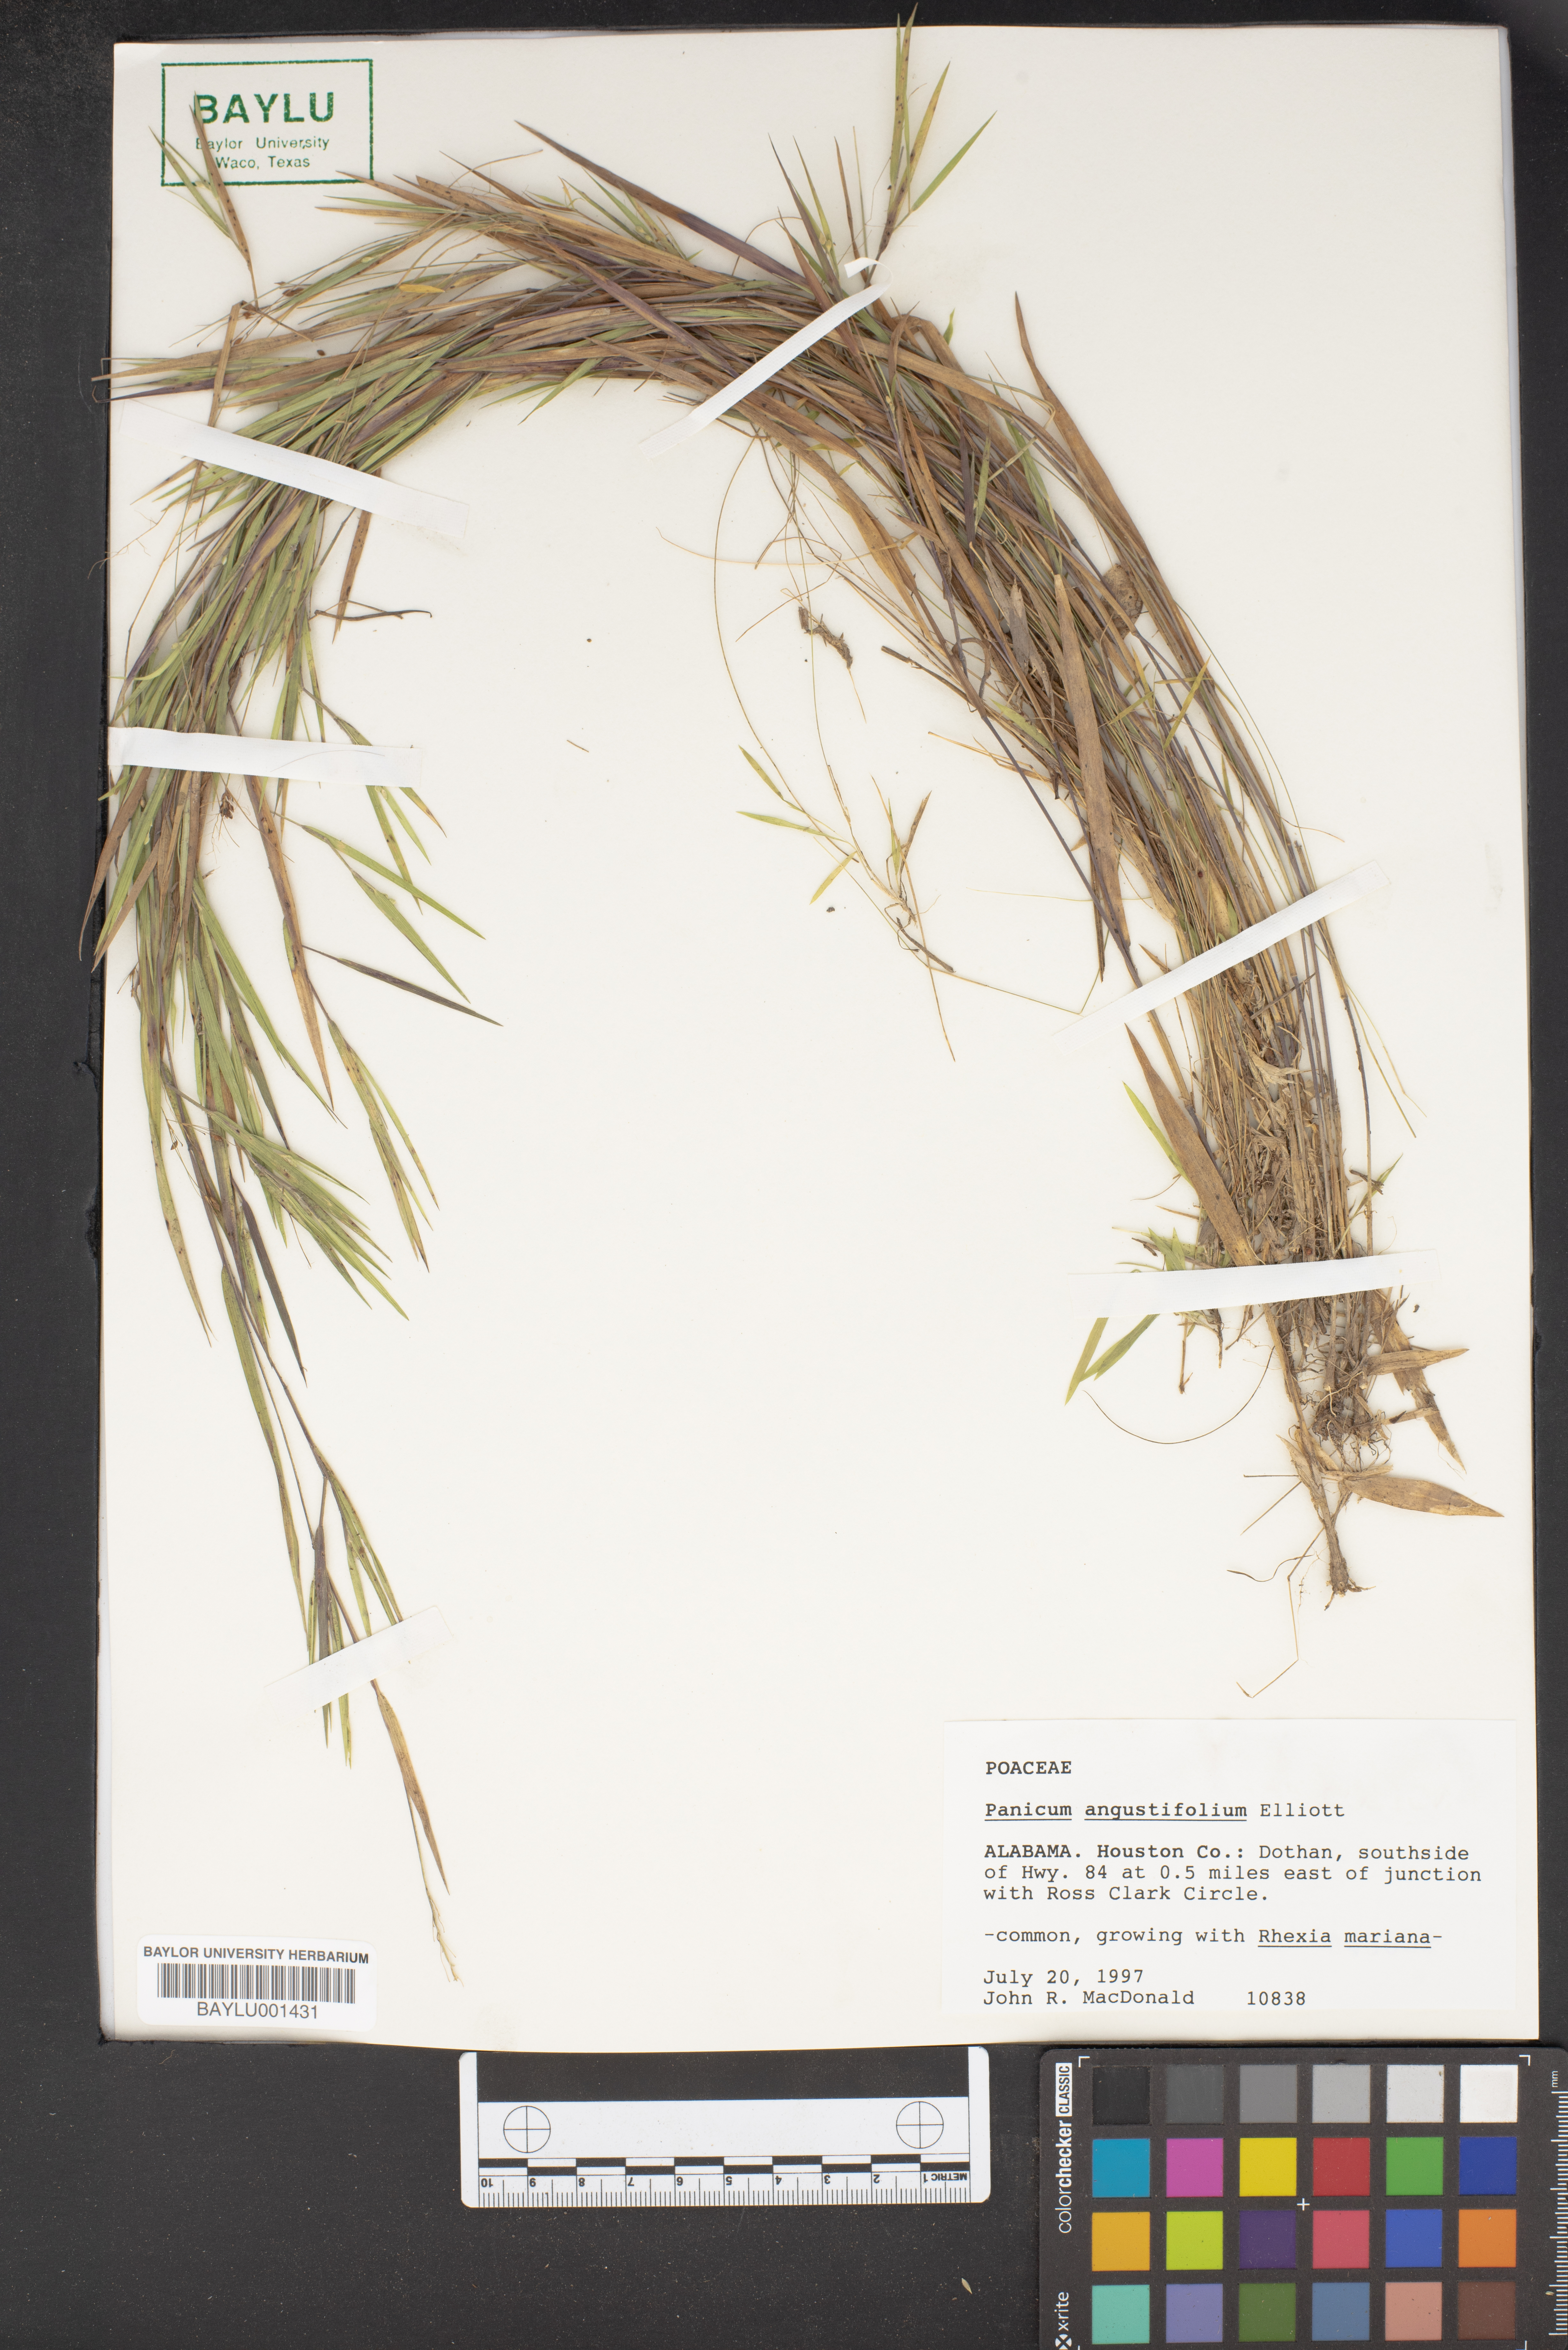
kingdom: Plantae
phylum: Tracheophyta
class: Liliopsida
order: Poales
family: Poaceae
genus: Dichanthelium
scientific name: Dichanthelium dichotomum
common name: Cypress panicgrass
